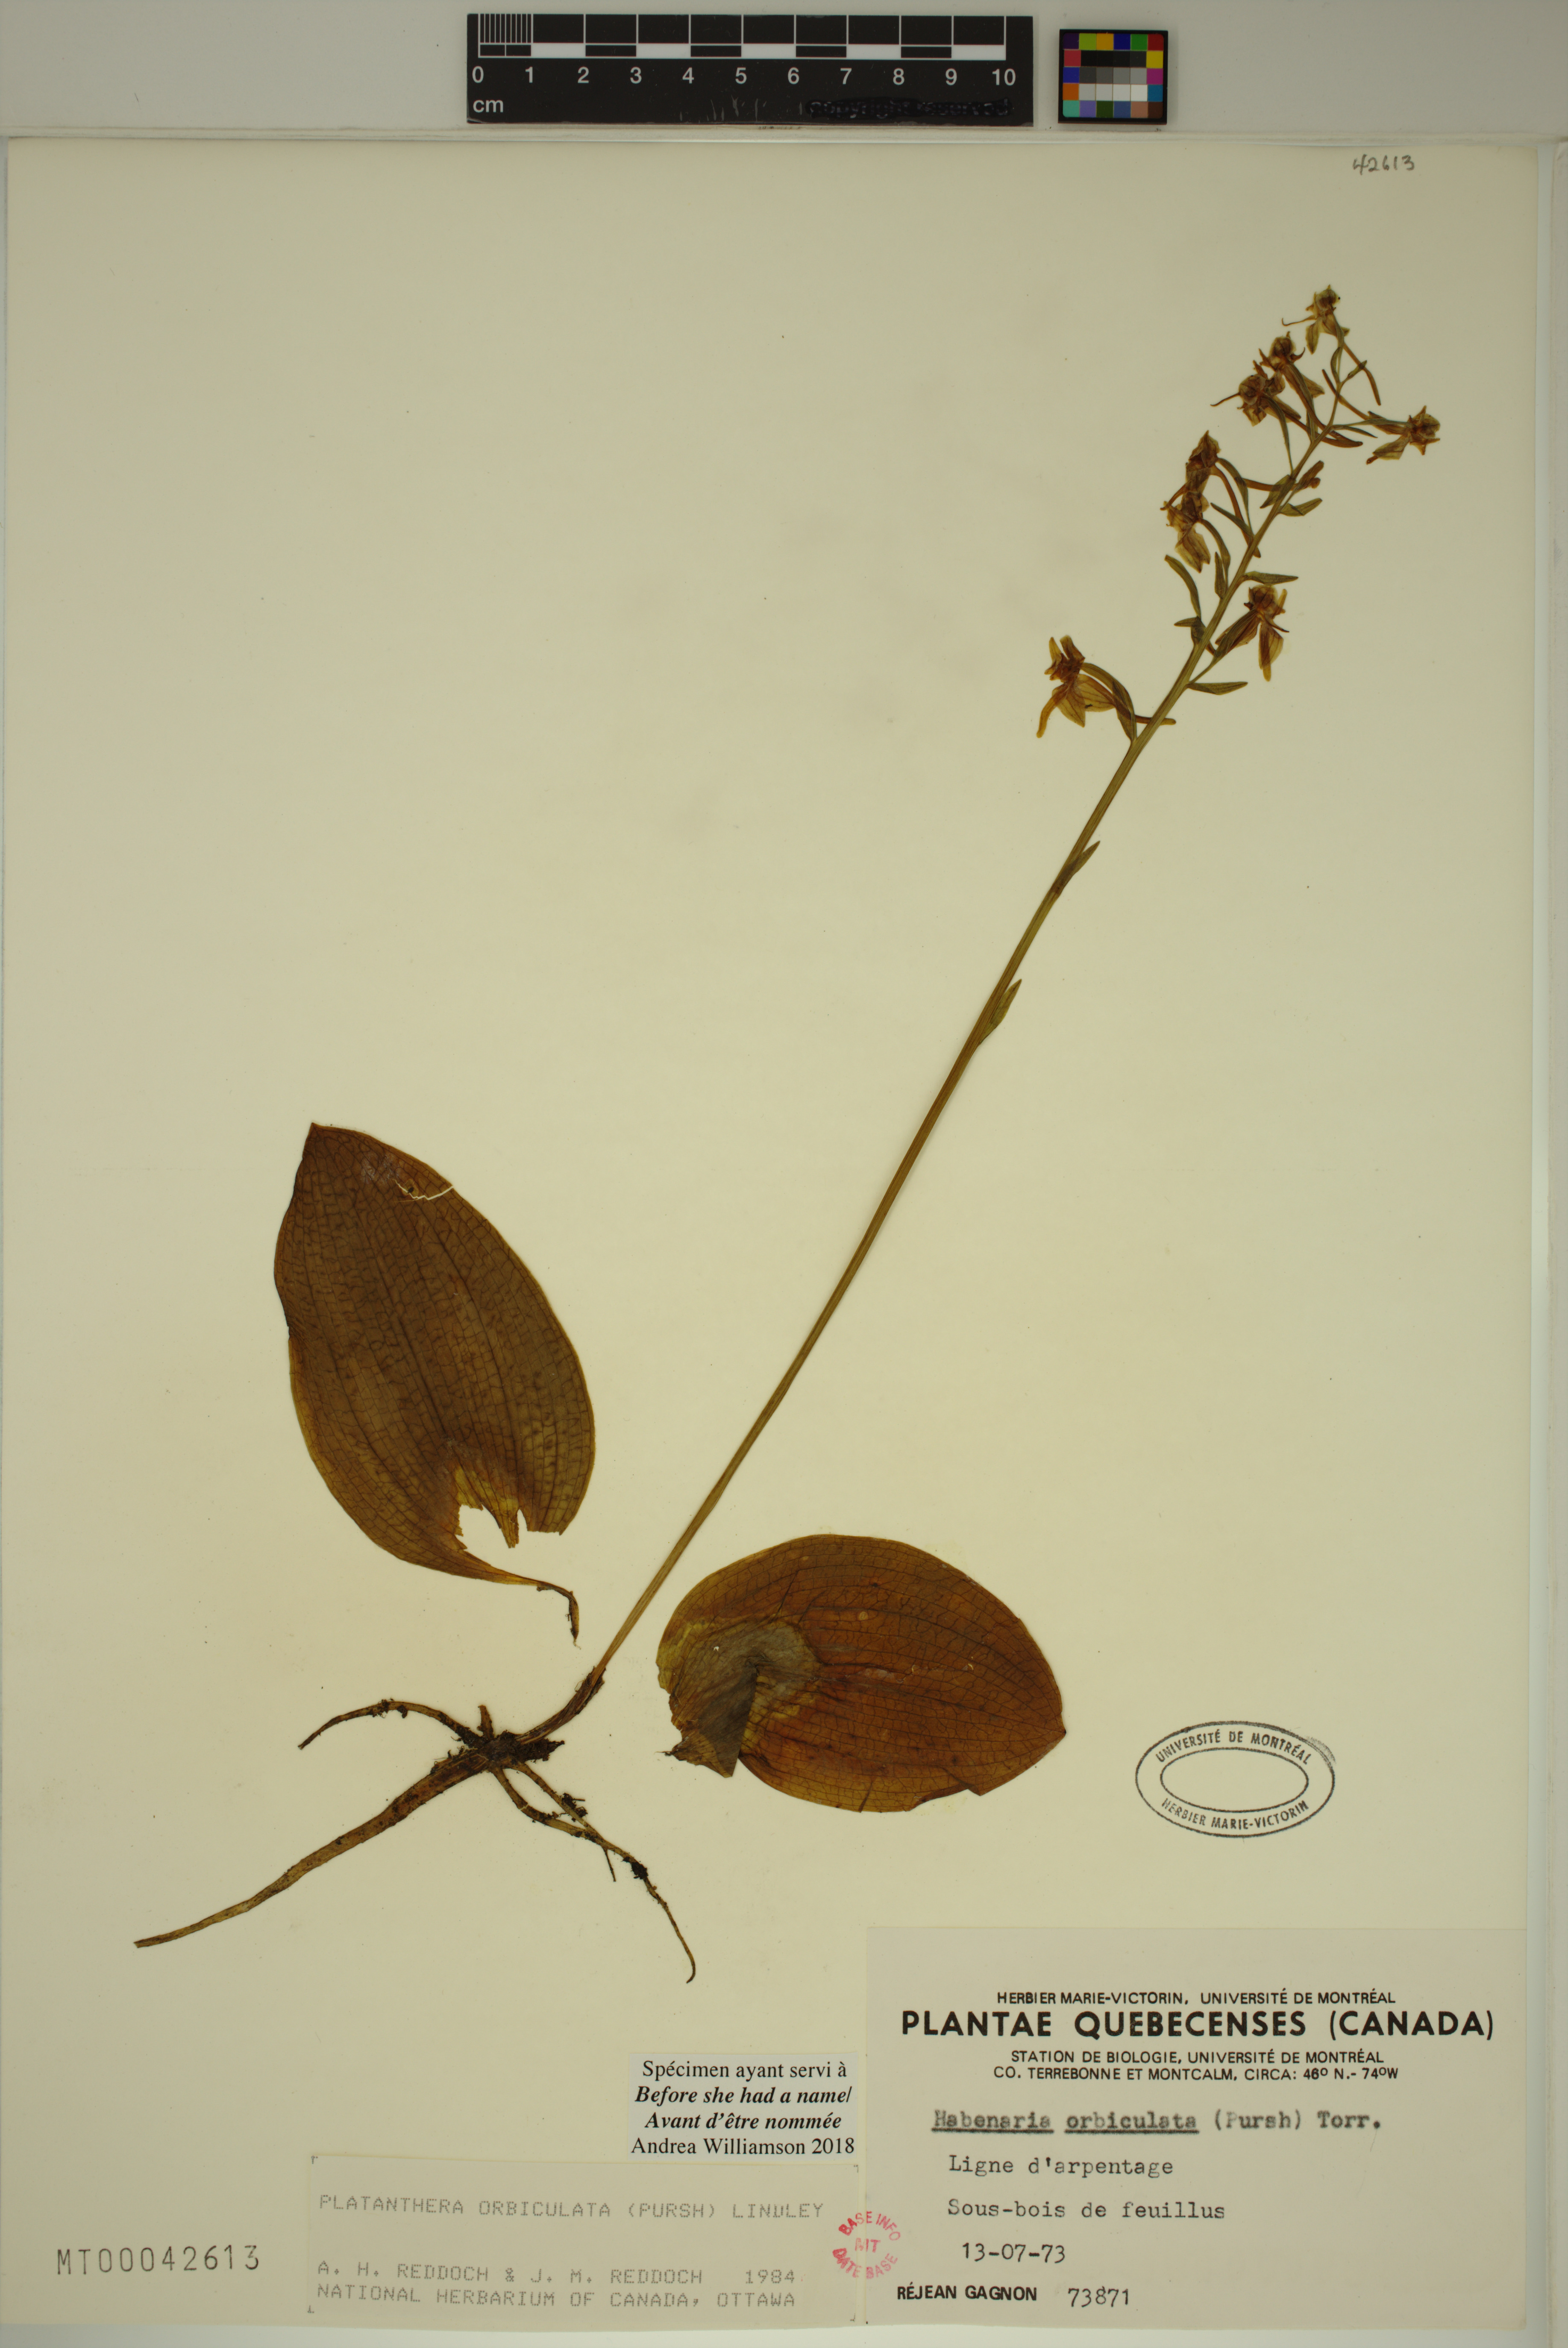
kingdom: Plantae
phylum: Tracheophyta
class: Liliopsida
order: Asparagales
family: Orchidaceae
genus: Platanthera
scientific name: Platanthera orbiculata
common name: Large round-leaved orchid
